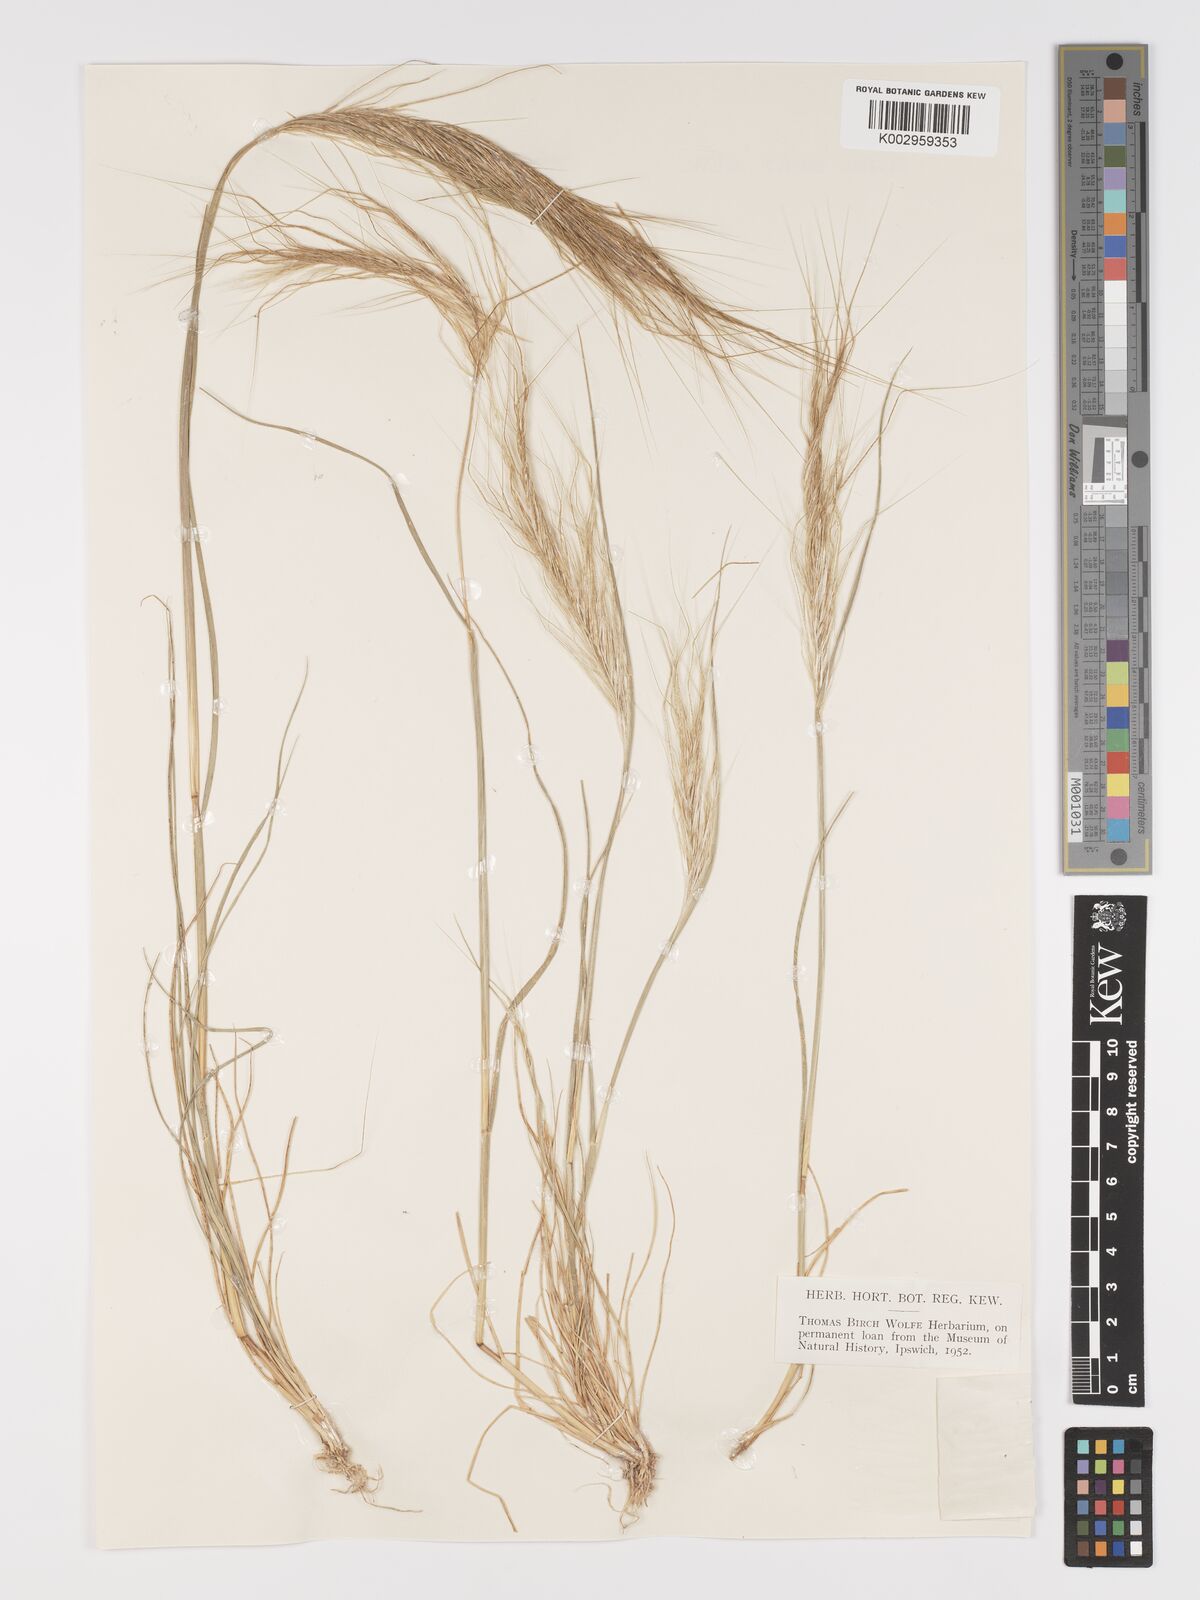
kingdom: Plantae
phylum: Tracheophyta
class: Liliopsida
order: Poales
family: Poaceae
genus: Stipellula
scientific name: Stipellula capensis
